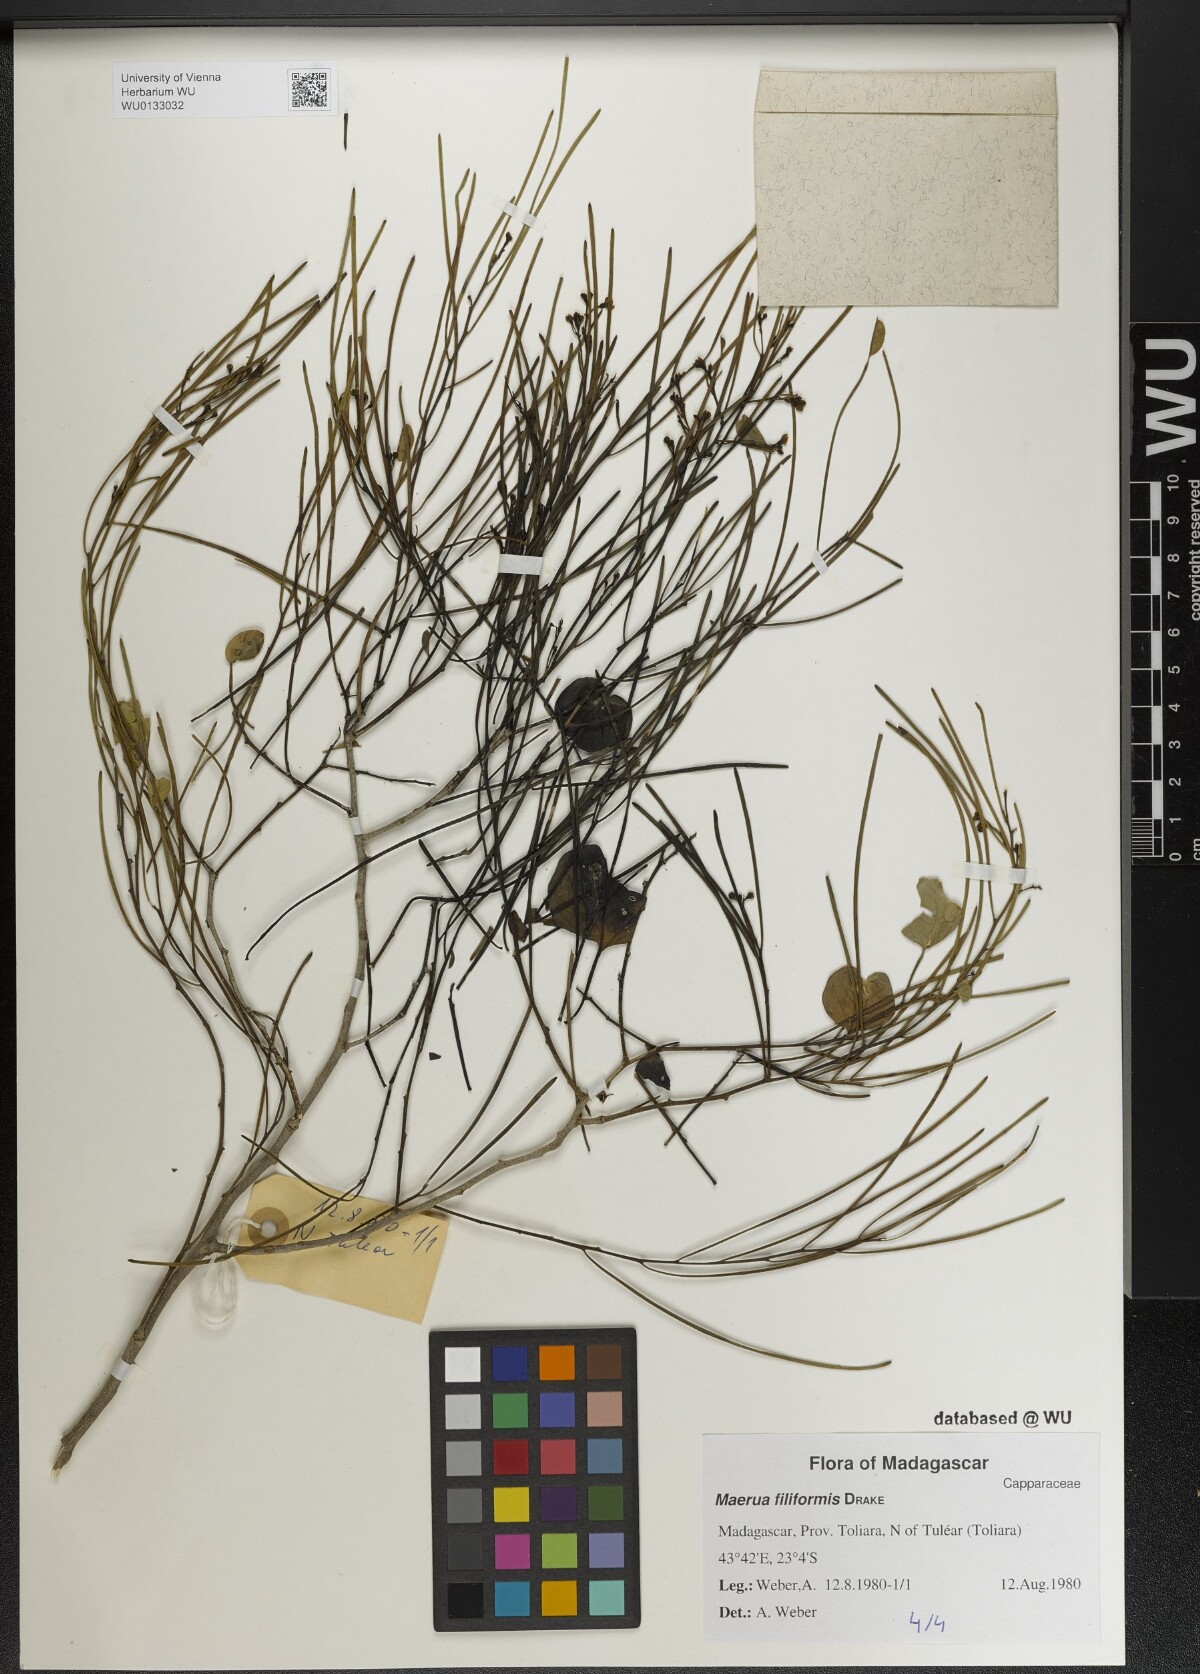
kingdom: Plantae
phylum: Tracheophyta
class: Magnoliopsida
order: Brassicales
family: Capparaceae
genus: Maerua
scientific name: Maerua filiformis
